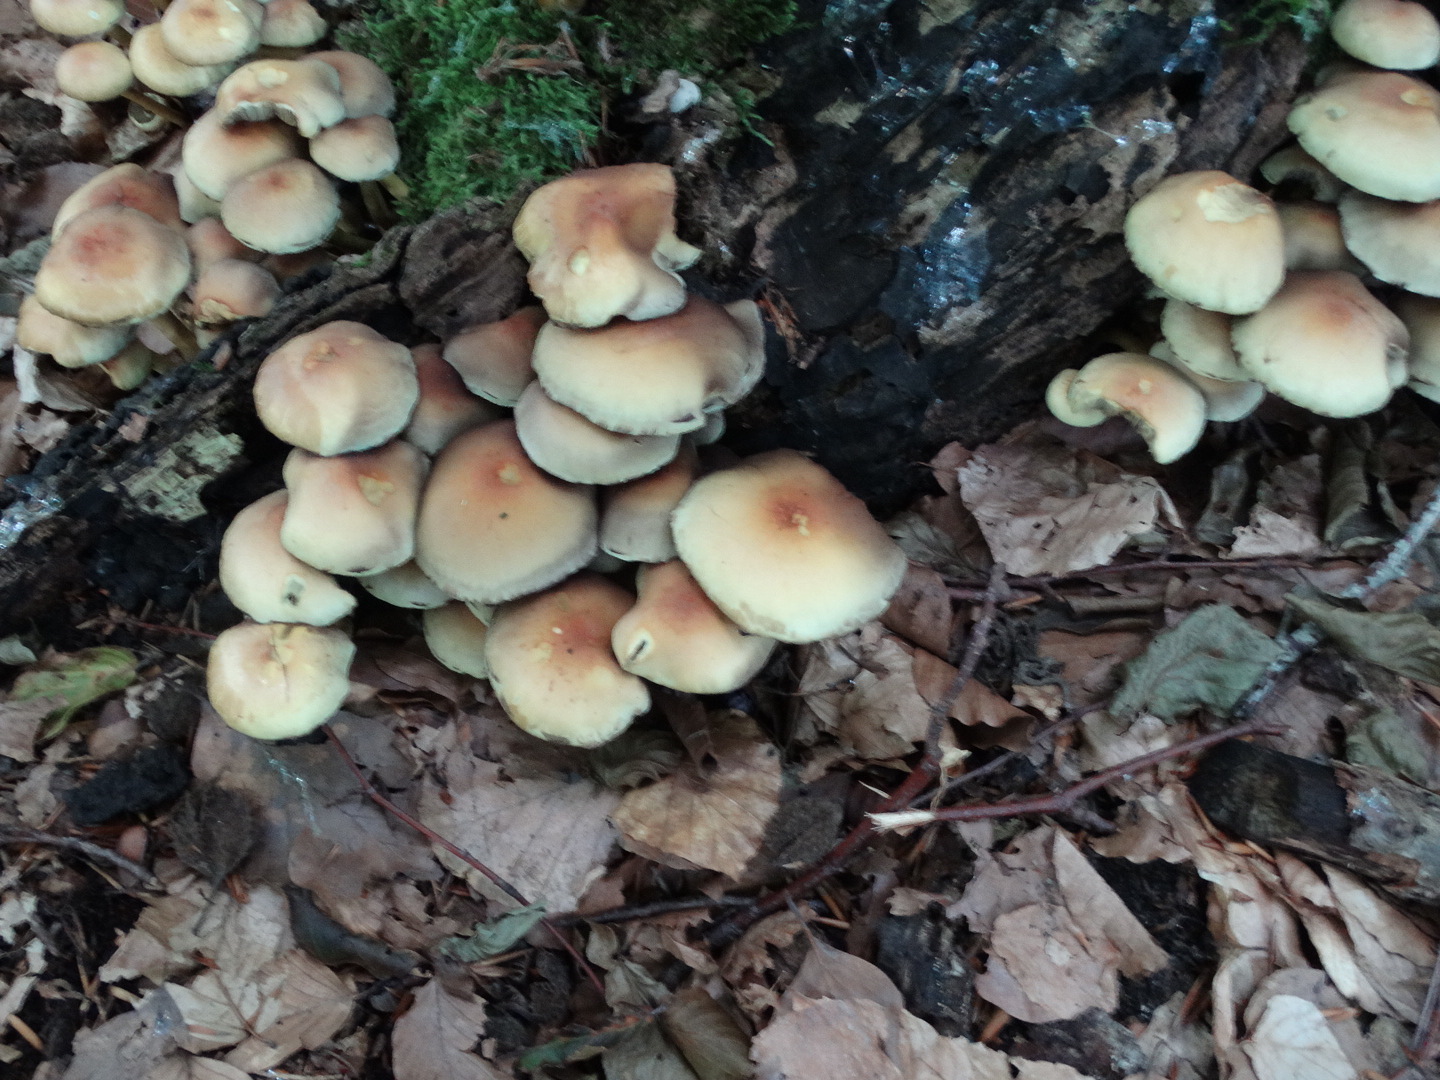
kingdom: Fungi
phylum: Basidiomycota
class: Agaricomycetes
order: Agaricales
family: Strophariaceae
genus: Hypholoma
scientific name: Hypholoma fasciculare
